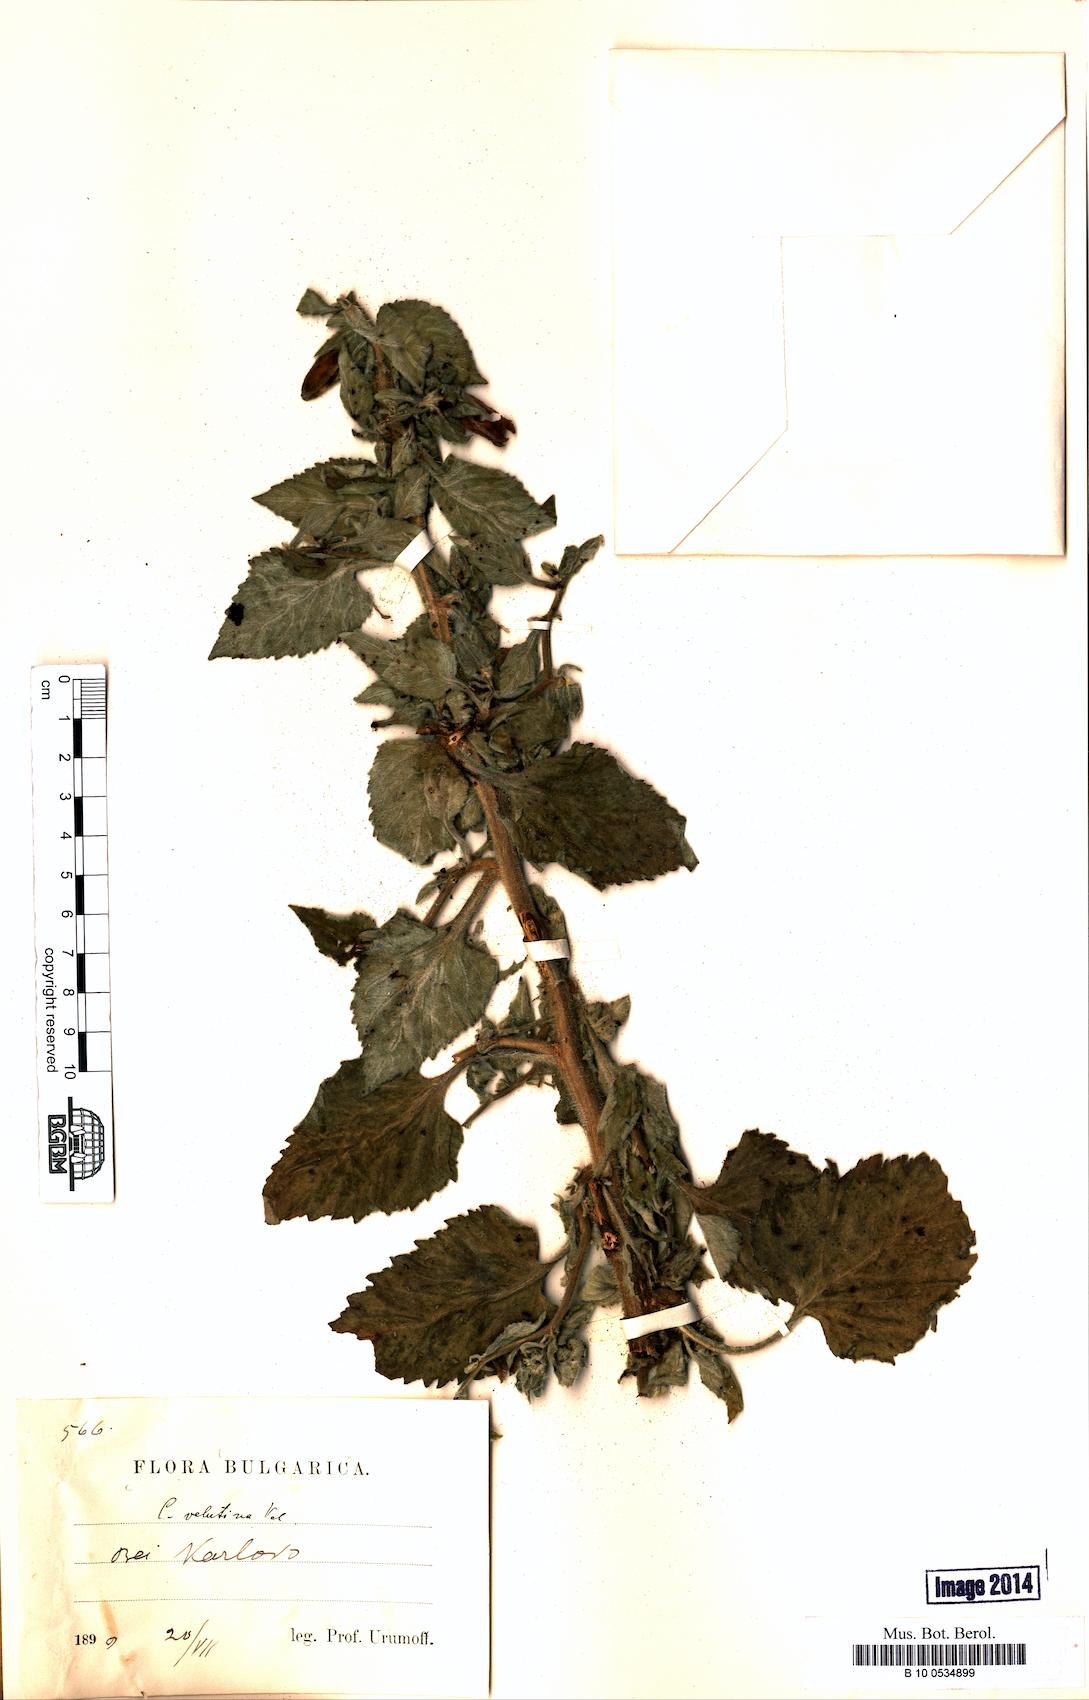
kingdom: Plantae
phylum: Tracheophyta
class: Magnoliopsida
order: Asterales
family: Campanulaceae
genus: Campanula
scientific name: Campanula lanata
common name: Woolly bellflower
